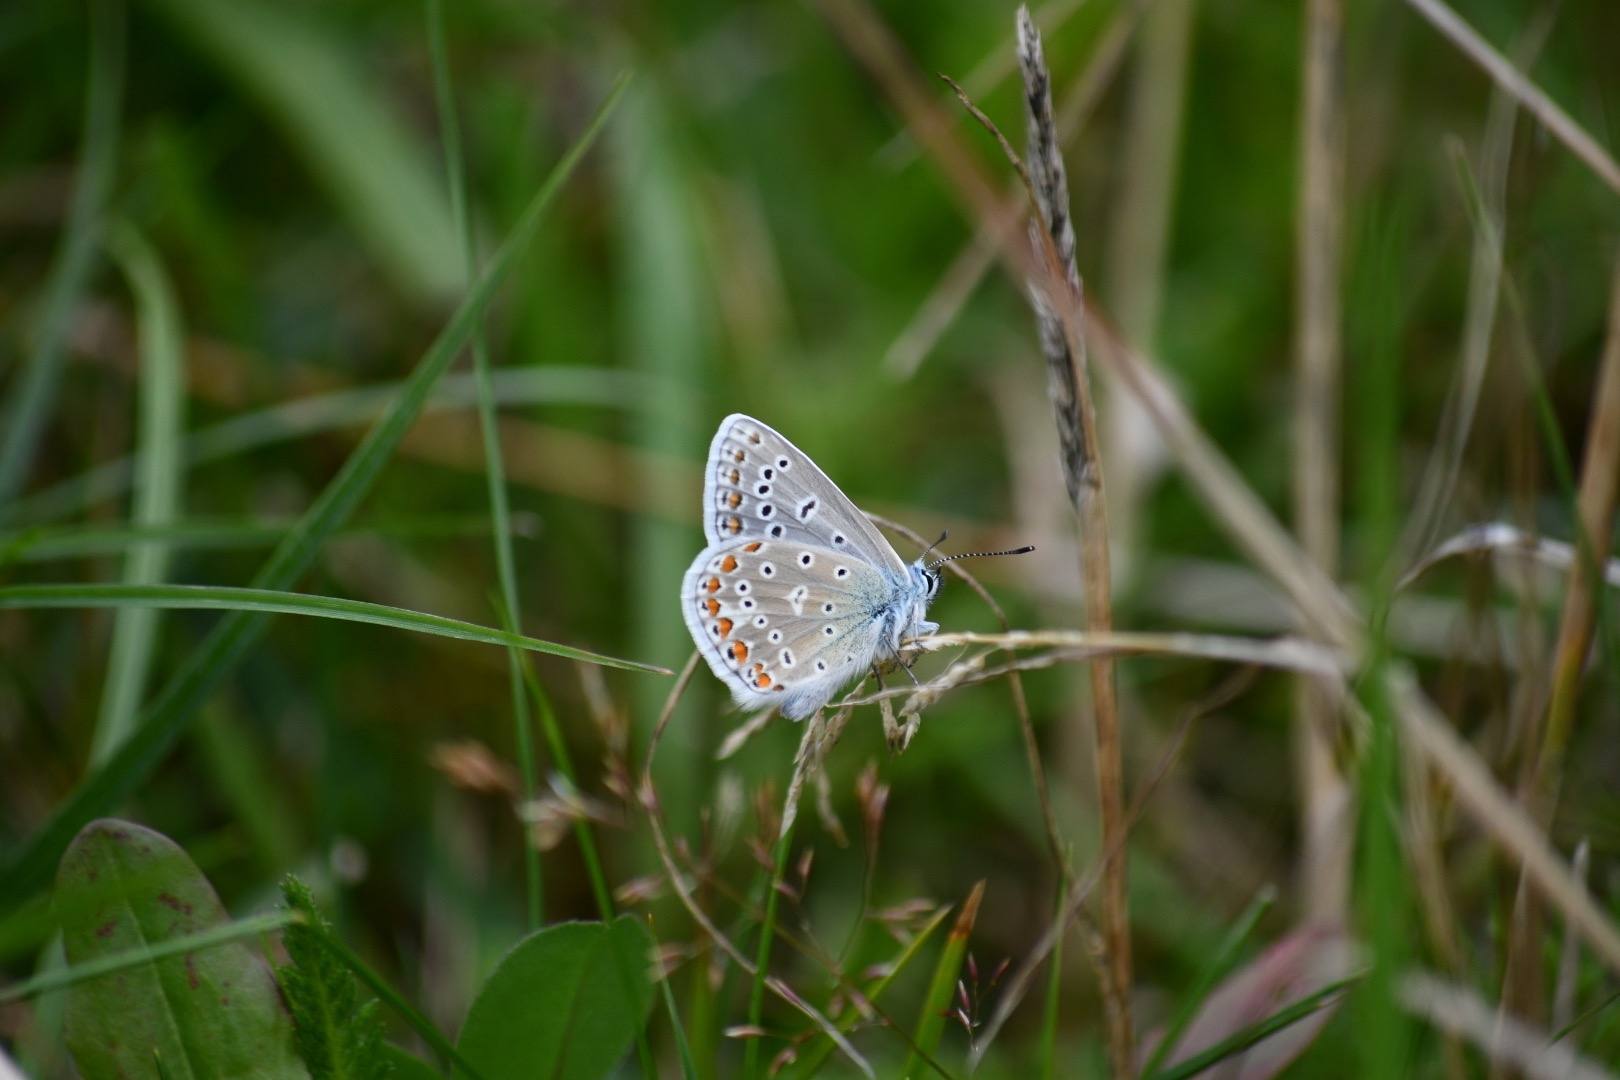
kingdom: Animalia
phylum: Arthropoda
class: Insecta
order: Lepidoptera
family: Lycaenidae
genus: Polyommatus
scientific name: Polyommatus icarus
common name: Almindelig blåfugl
